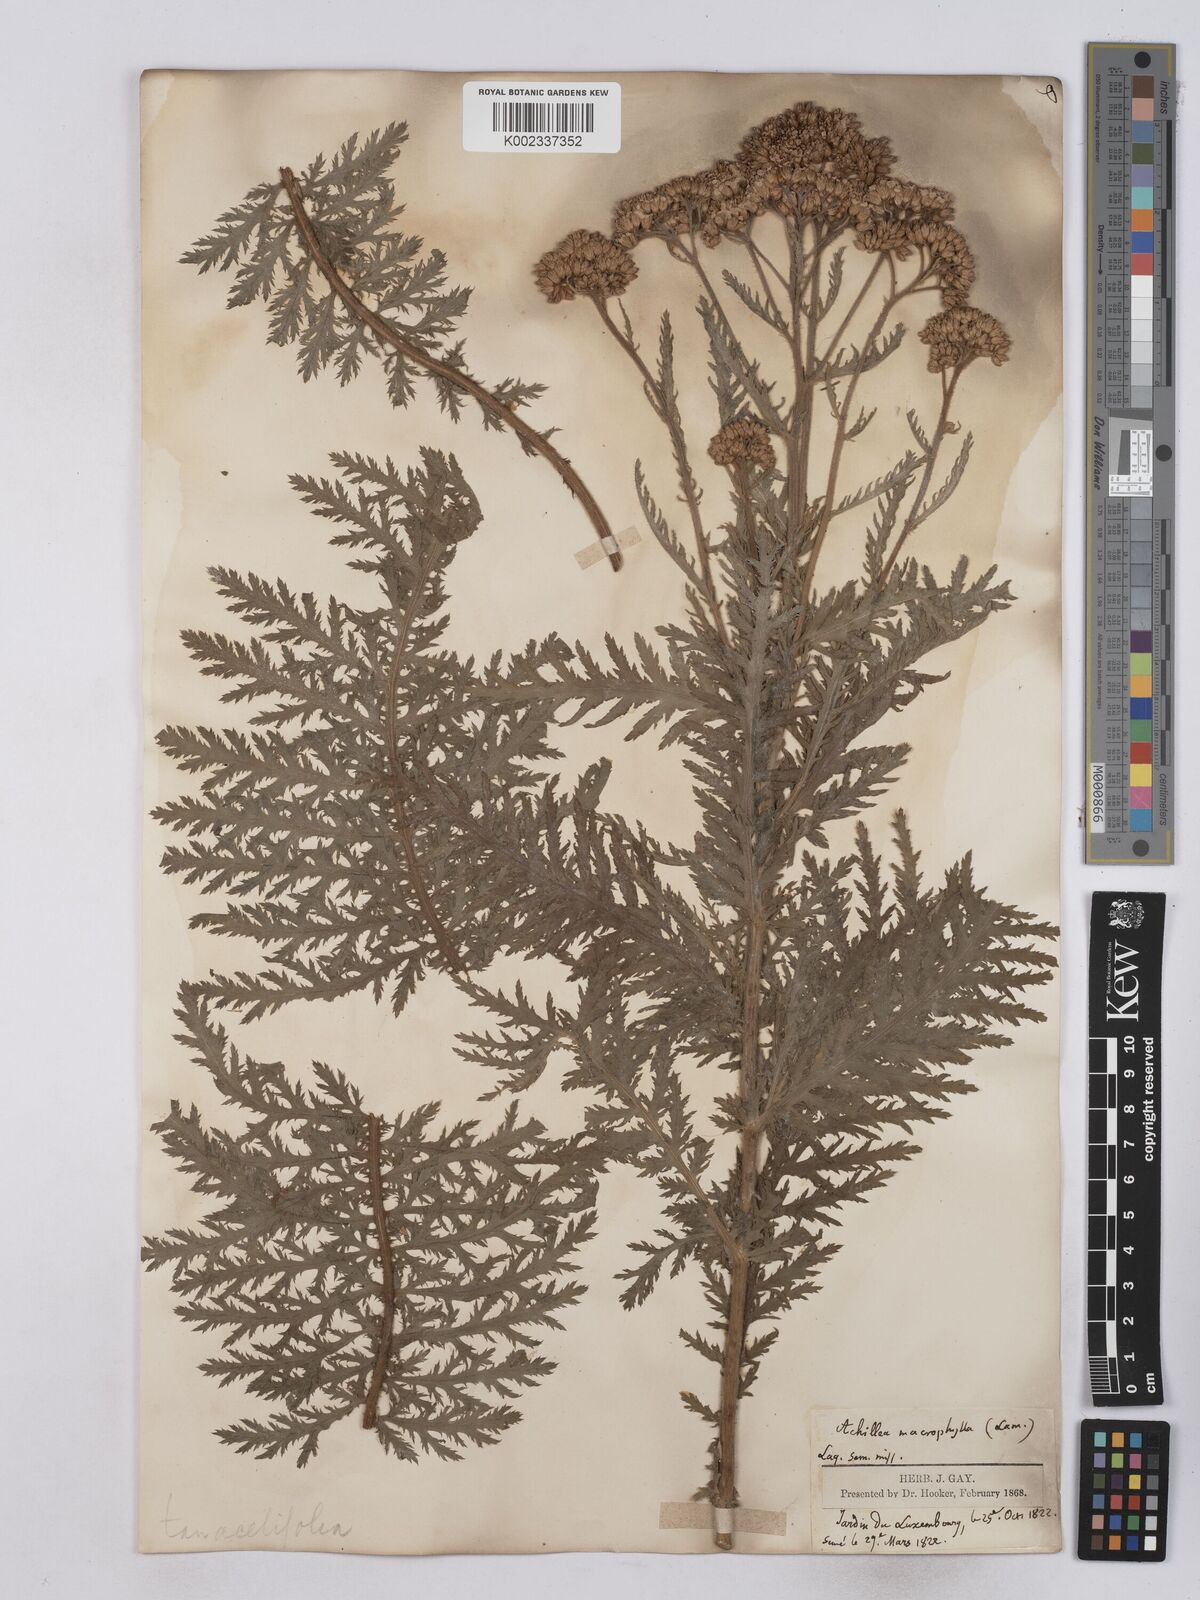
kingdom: Plantae
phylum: Tracheophyta
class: Magnoliopsida
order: Asterales
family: Asteraceae
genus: Achillea
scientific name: Achillea valesiaca
